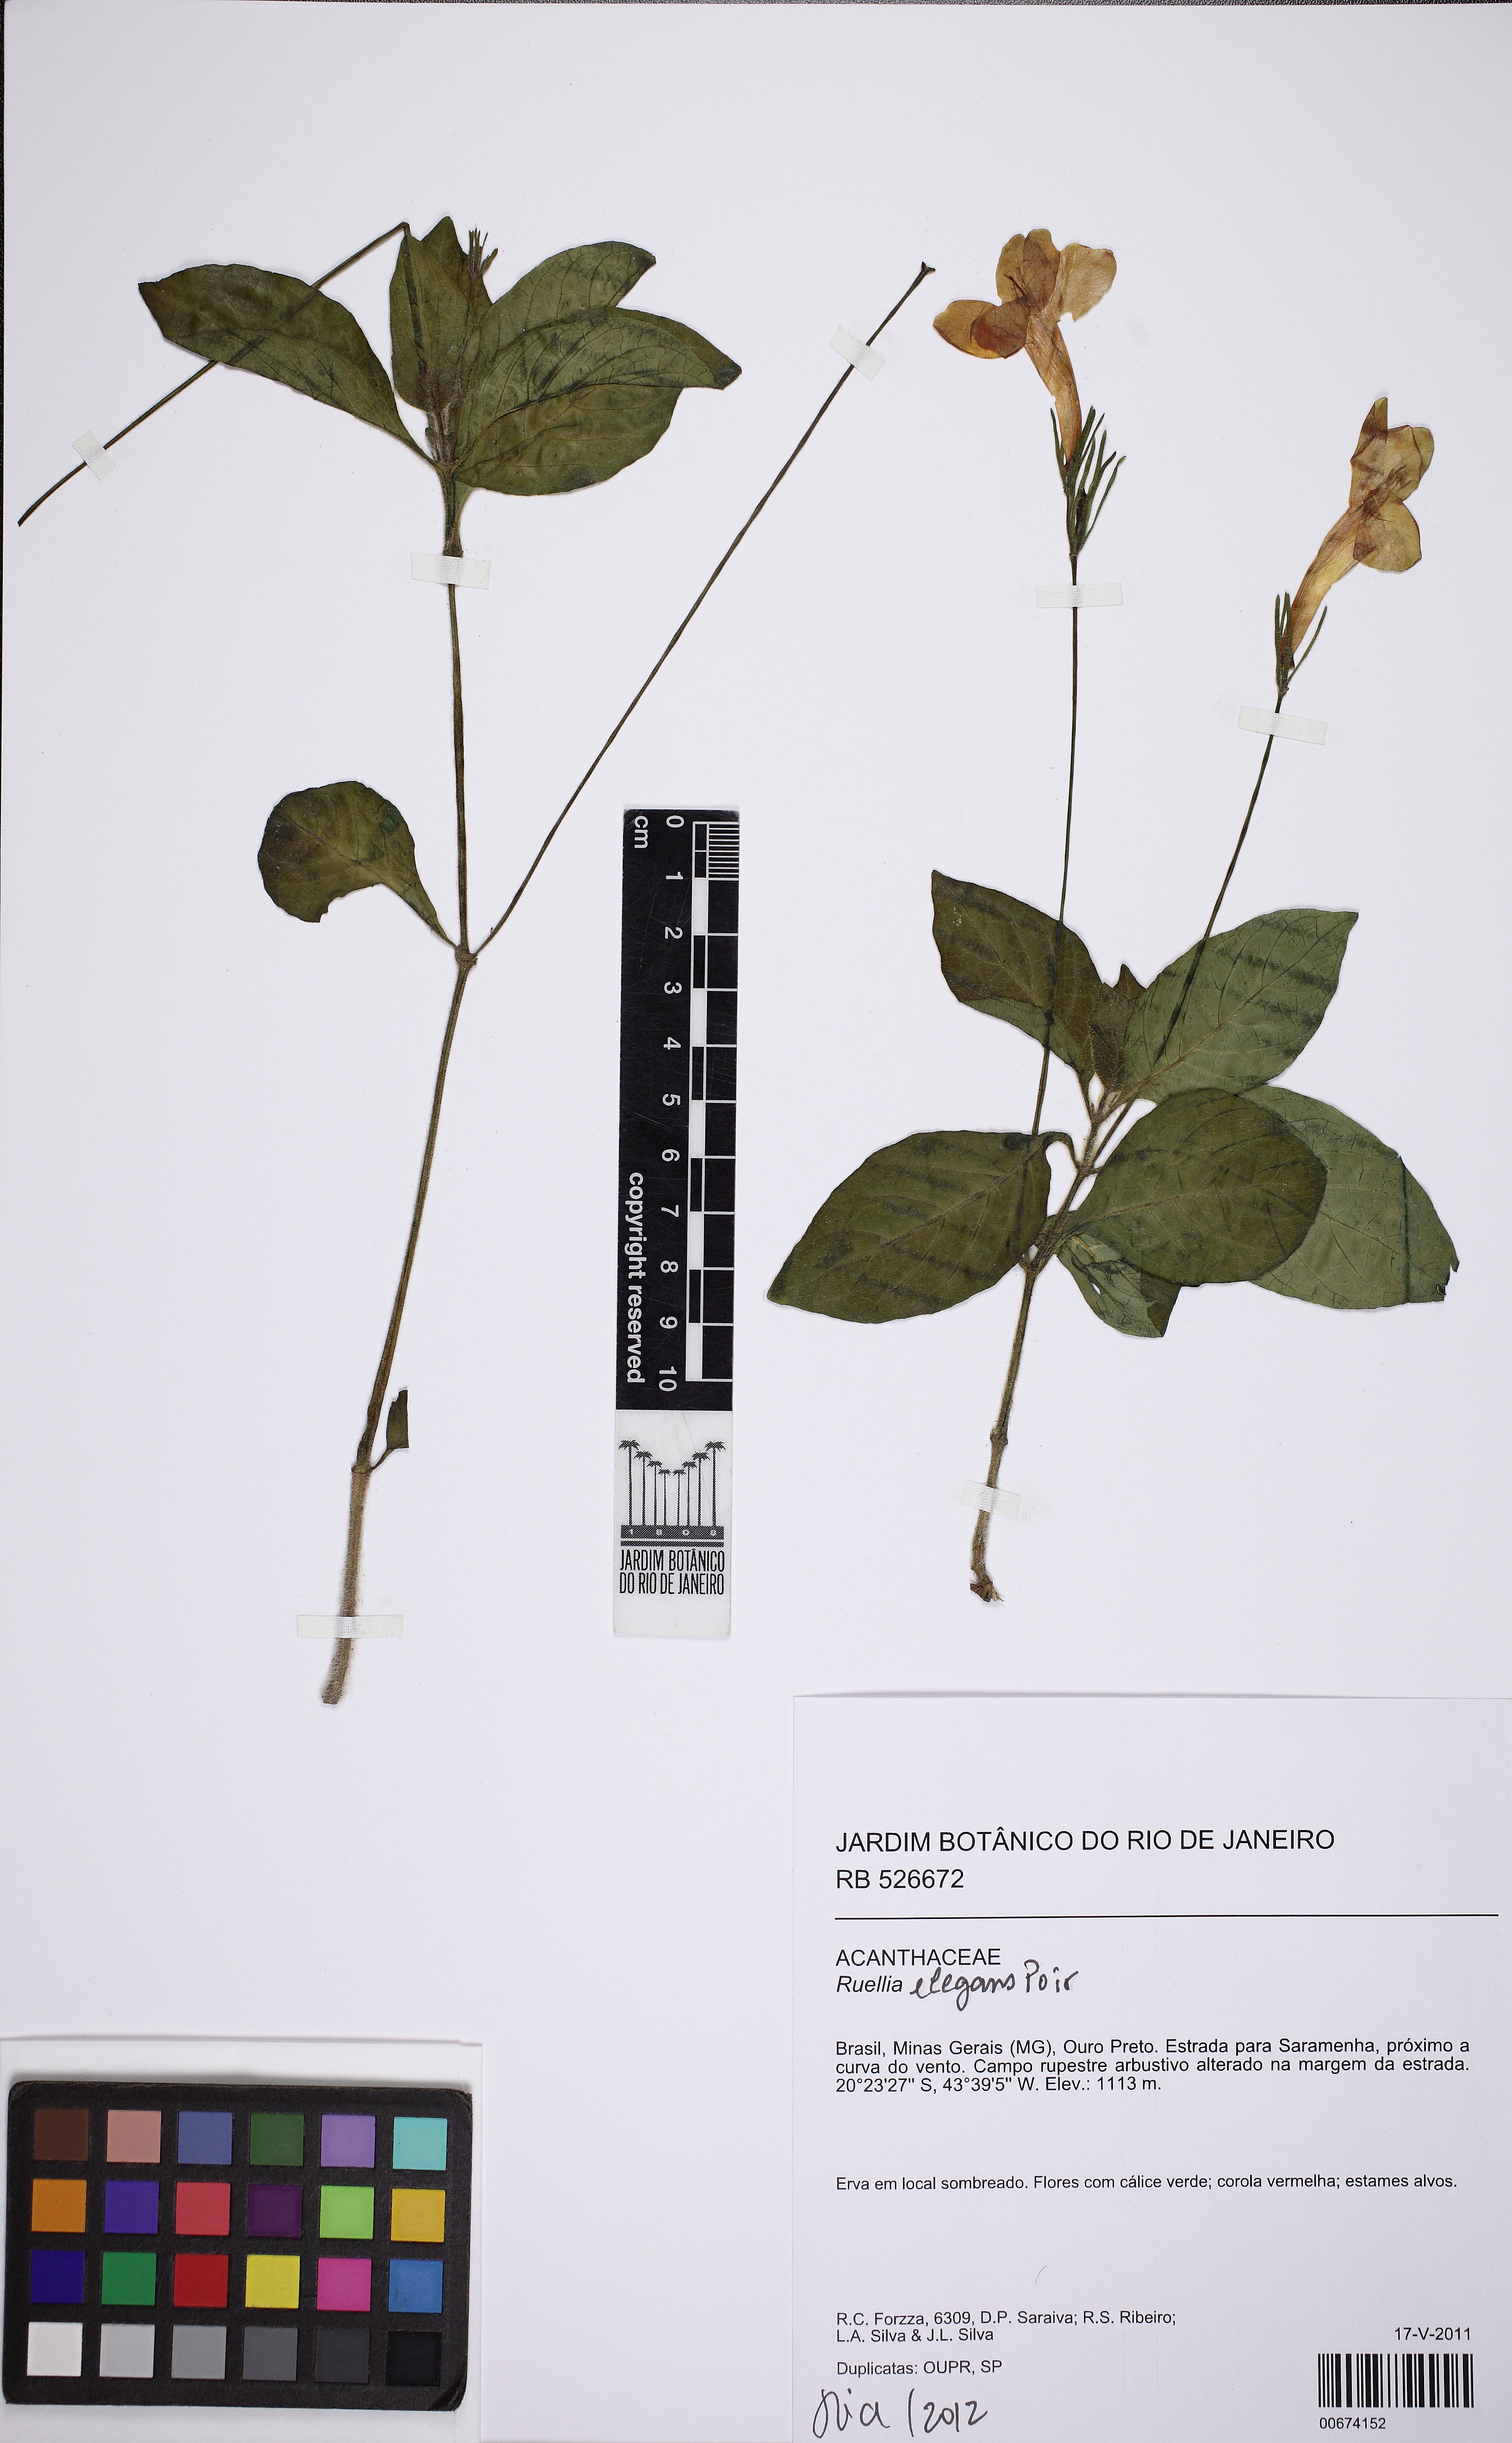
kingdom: Plantae
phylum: Tracheophyta
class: Magnoliopsida
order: Lamiales
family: Acanthaceae
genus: Ruellia
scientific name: Ruellia elegans
